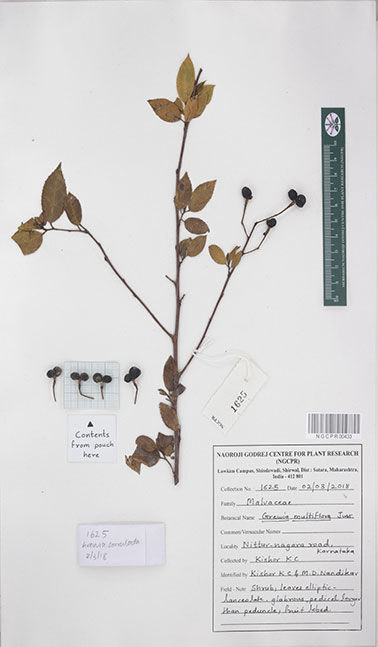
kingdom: Plantae
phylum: Tracheophyta
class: Magnoliopsida
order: Malvales
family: Malvaceae
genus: Grewia
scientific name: Grewia multiflora
